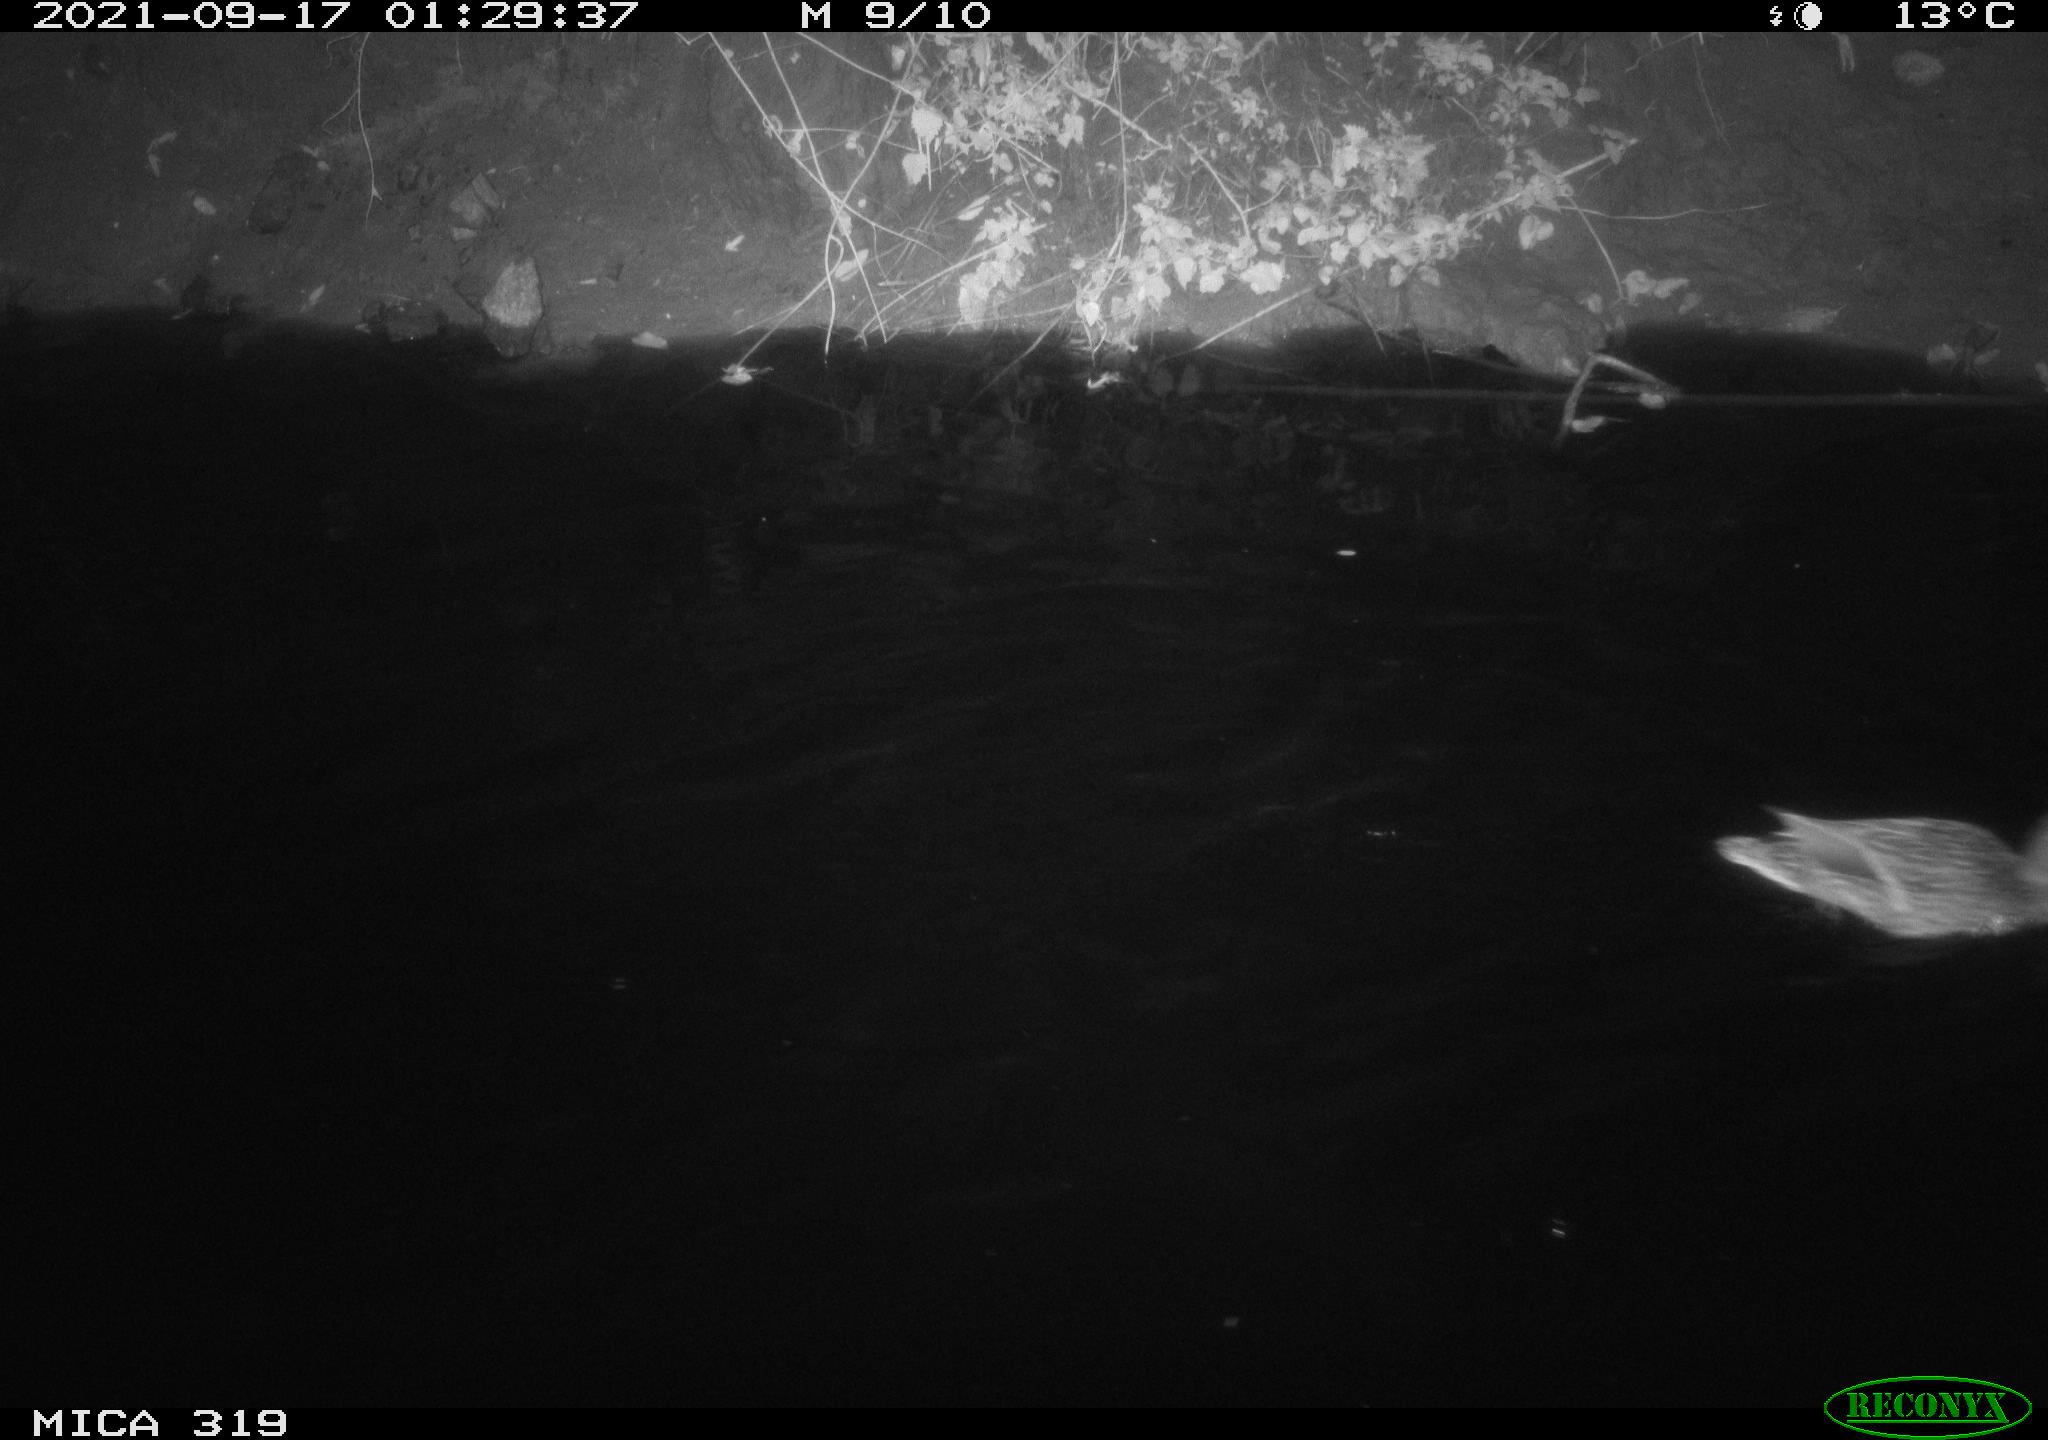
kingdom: Animalia
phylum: Chordata
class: Aves
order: Anseriformes
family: Anatidae
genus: Anas
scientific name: Anas platyrhynchos
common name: Mallard
